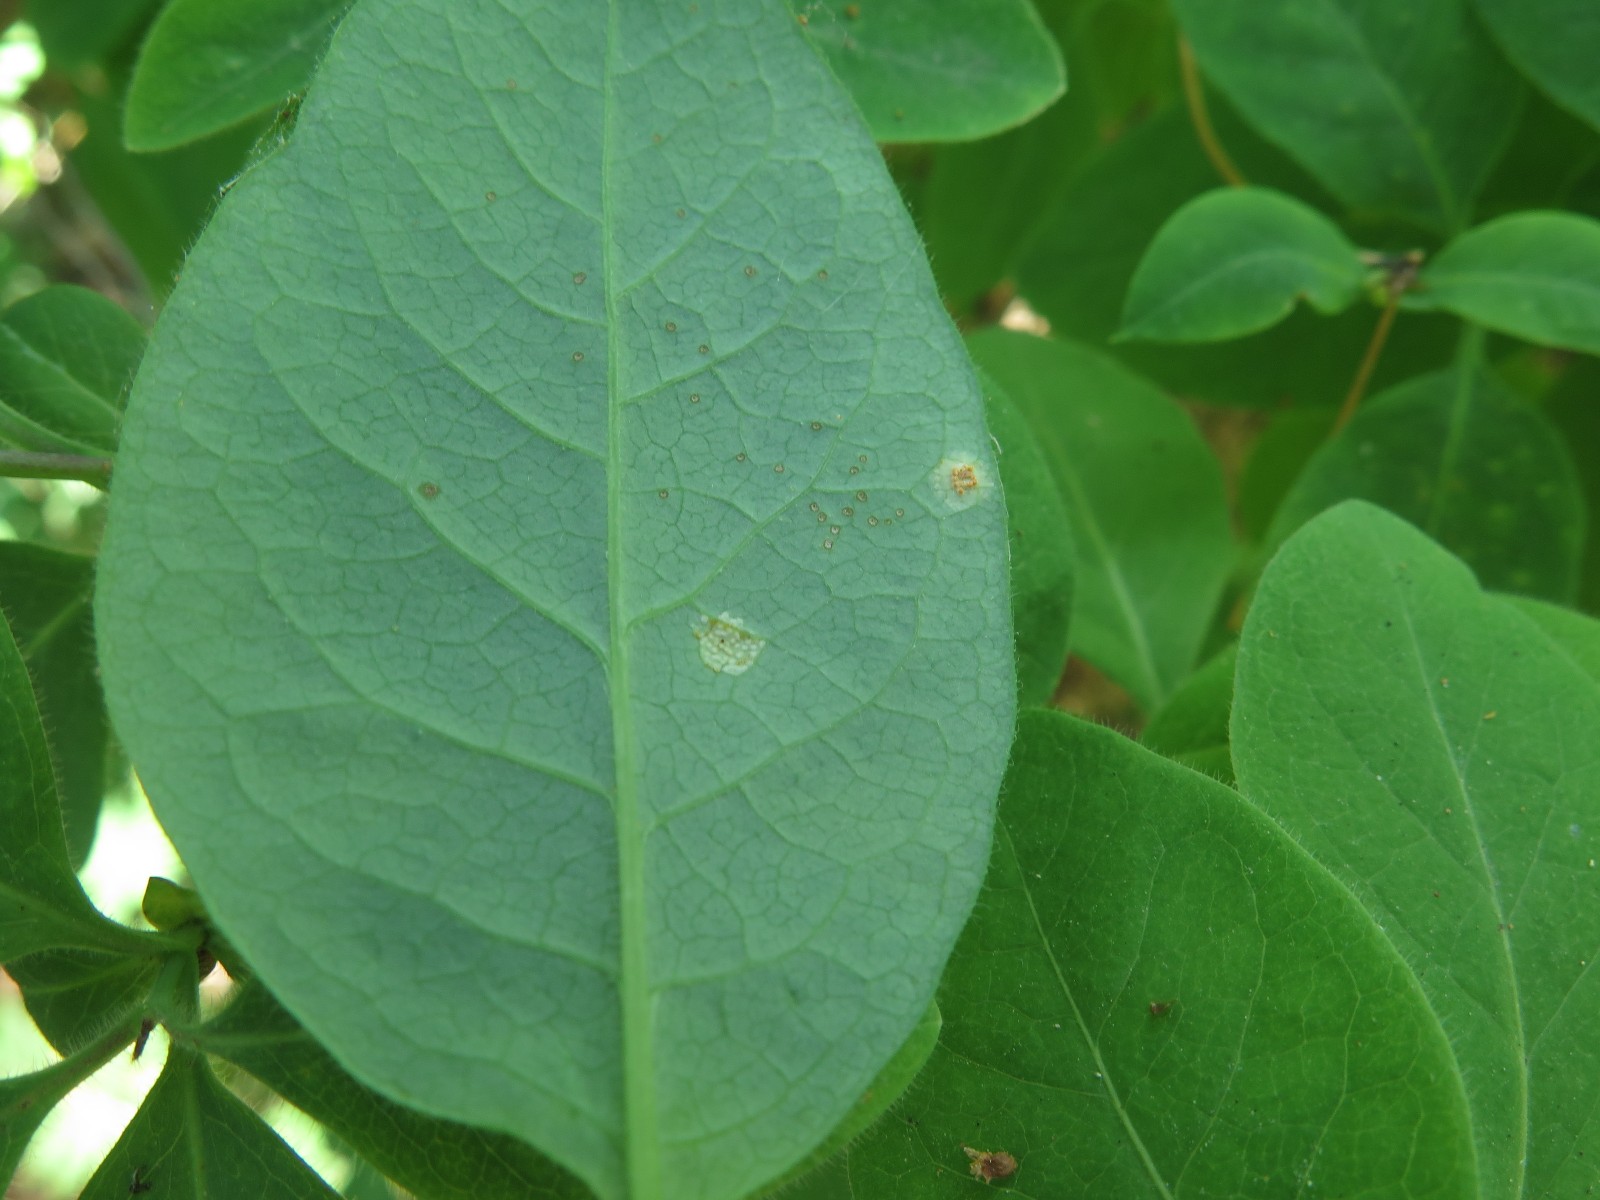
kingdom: Fungi
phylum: Basidiomycota
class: Pucciniomycetes
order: Pucciniales
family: Pucciniaceae
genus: Puccinia
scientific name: Puccinia festucae
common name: gedeblad-tvecellerust
